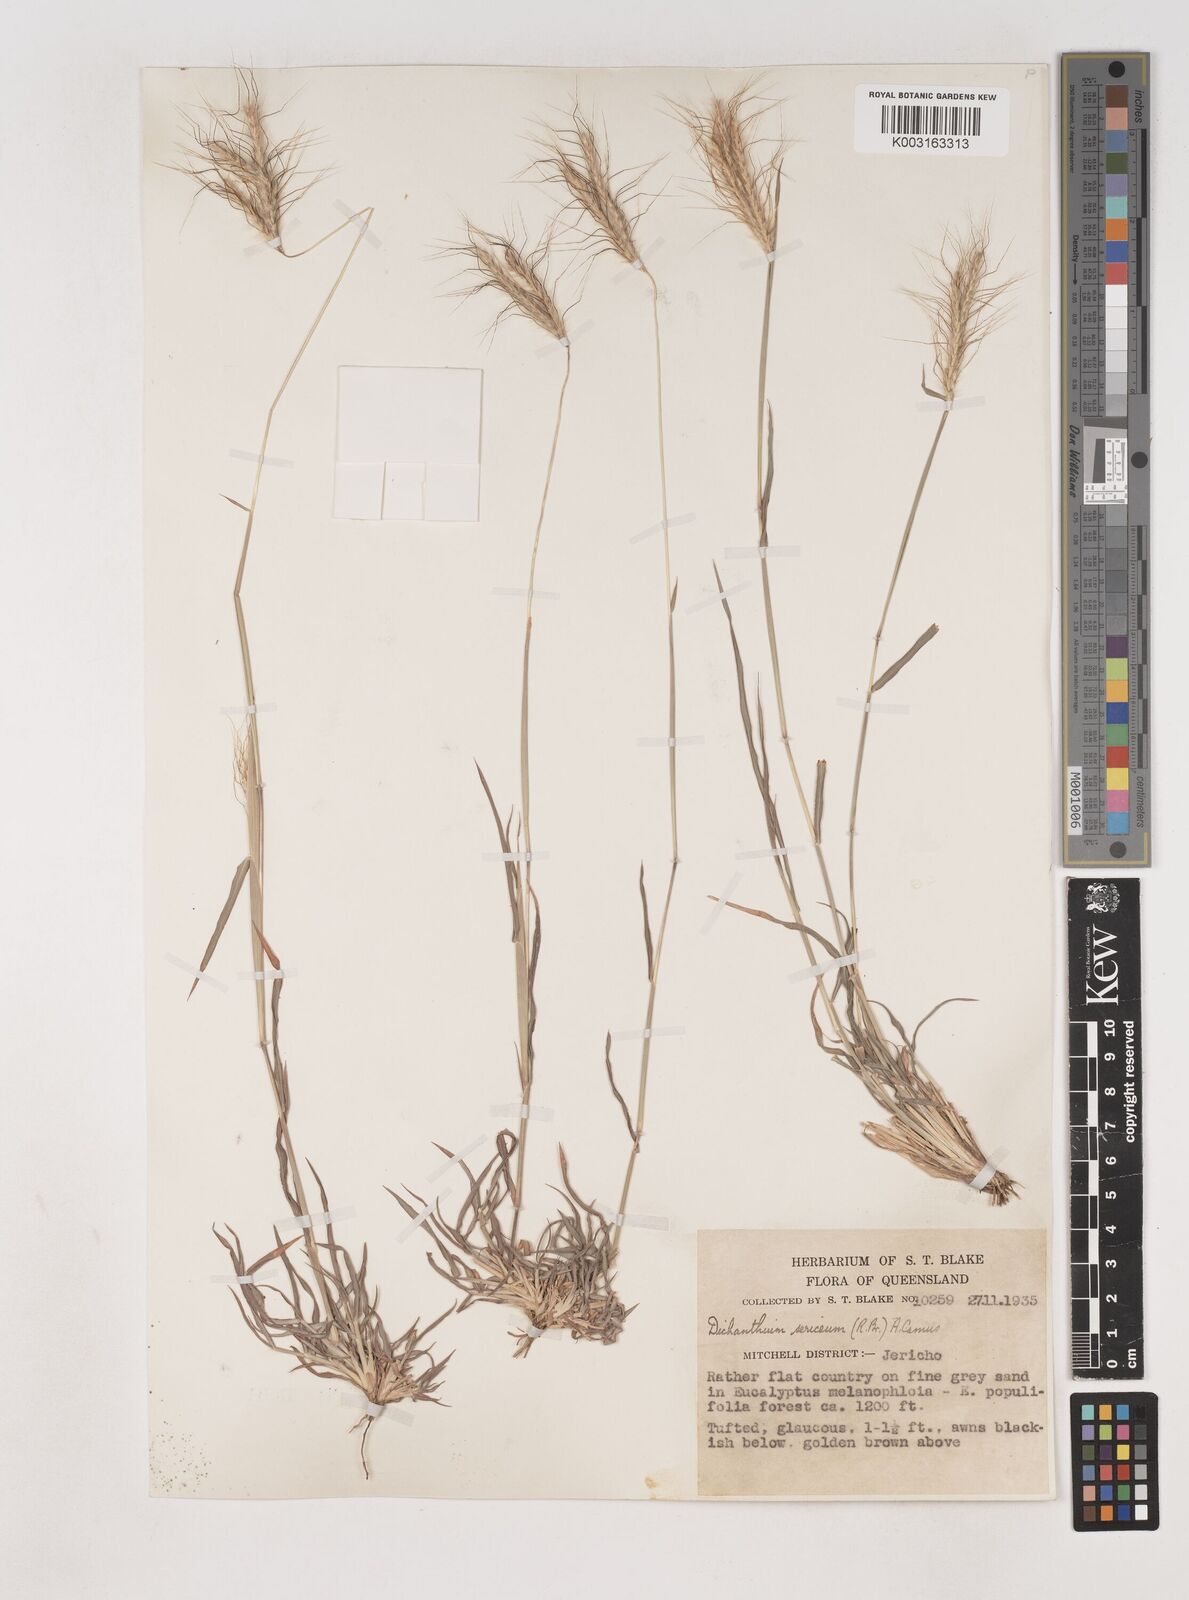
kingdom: Plantae
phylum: Tracheophyta
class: Liliopsida
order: Poales
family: Poaceae
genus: Dichanthium
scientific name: Dichanthium sericeum
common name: Silky bluestem
